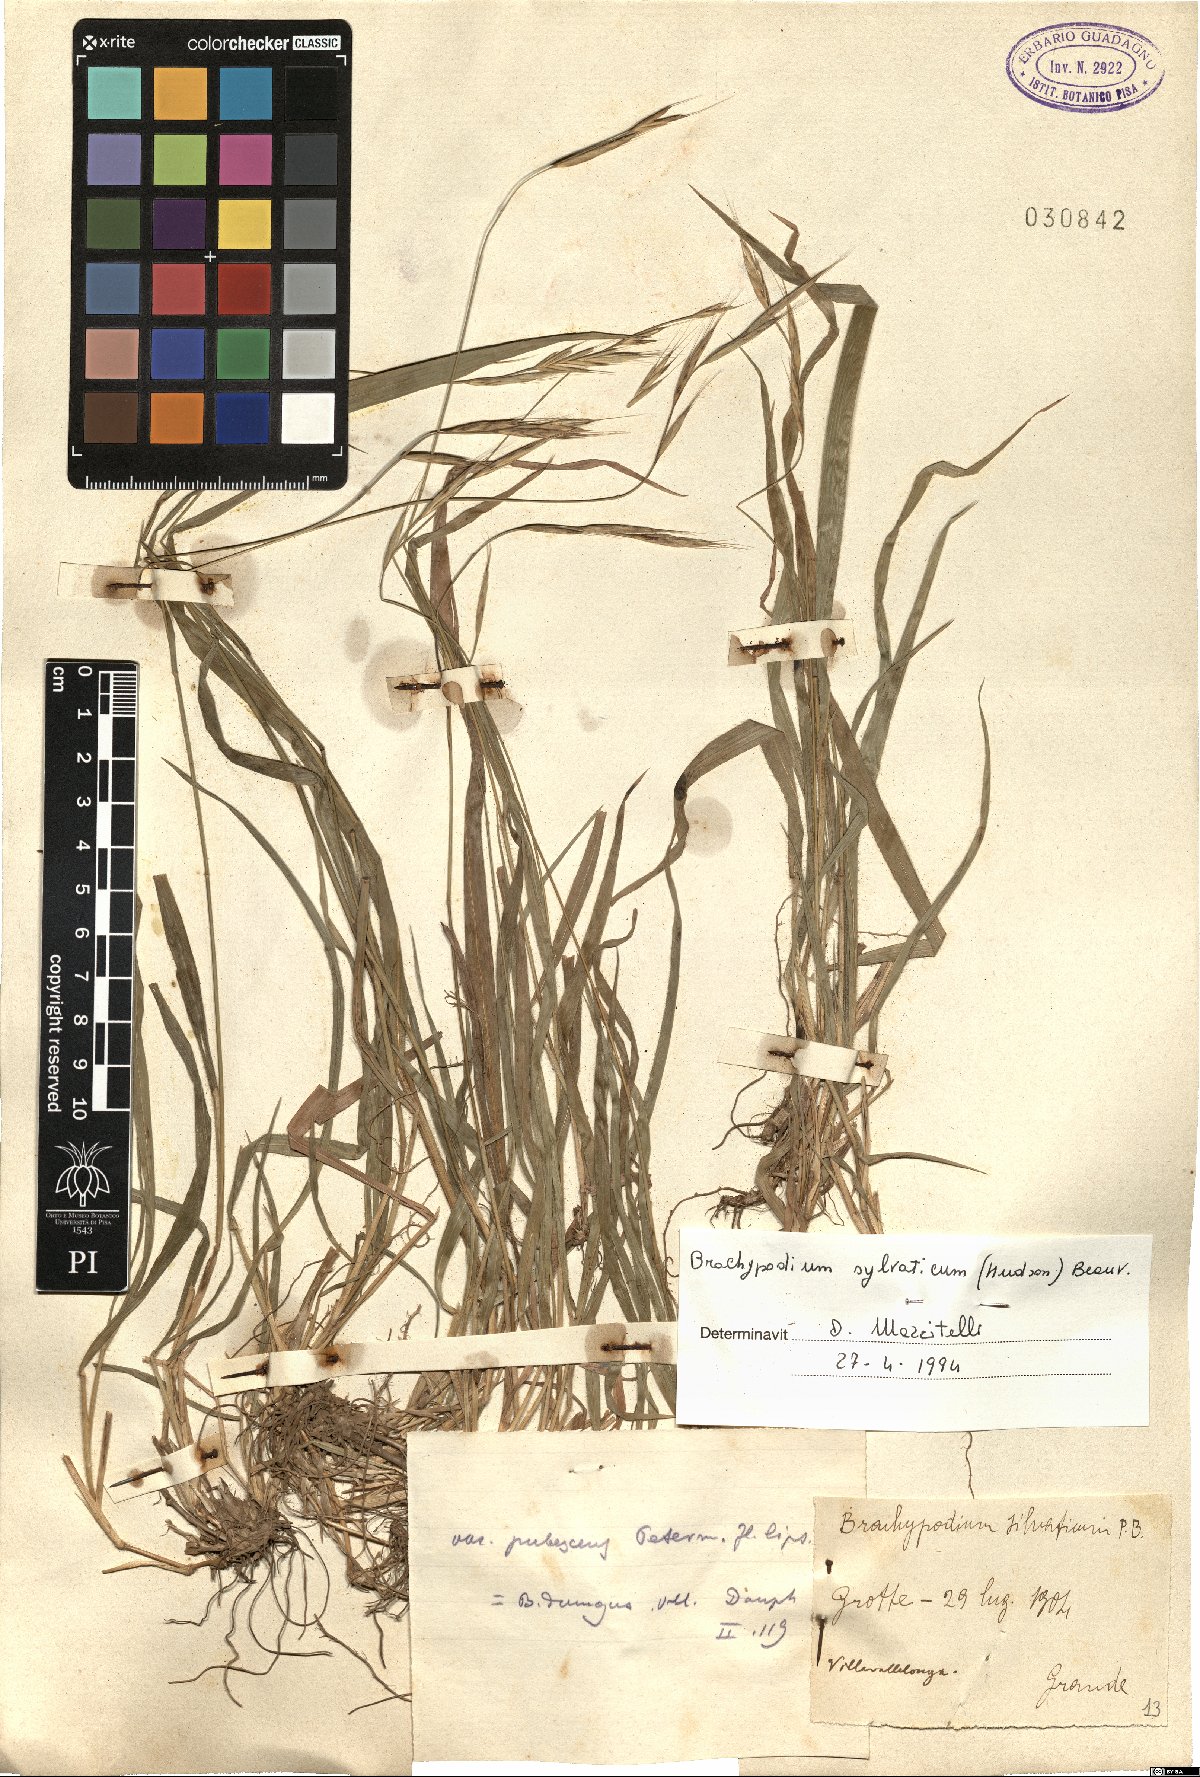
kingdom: Plantae
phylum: Tracheophyta
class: Liliopsida
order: Poales
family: Poaceae
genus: Brachypodium
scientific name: Brachypodium sylvaticum
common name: False-brome
